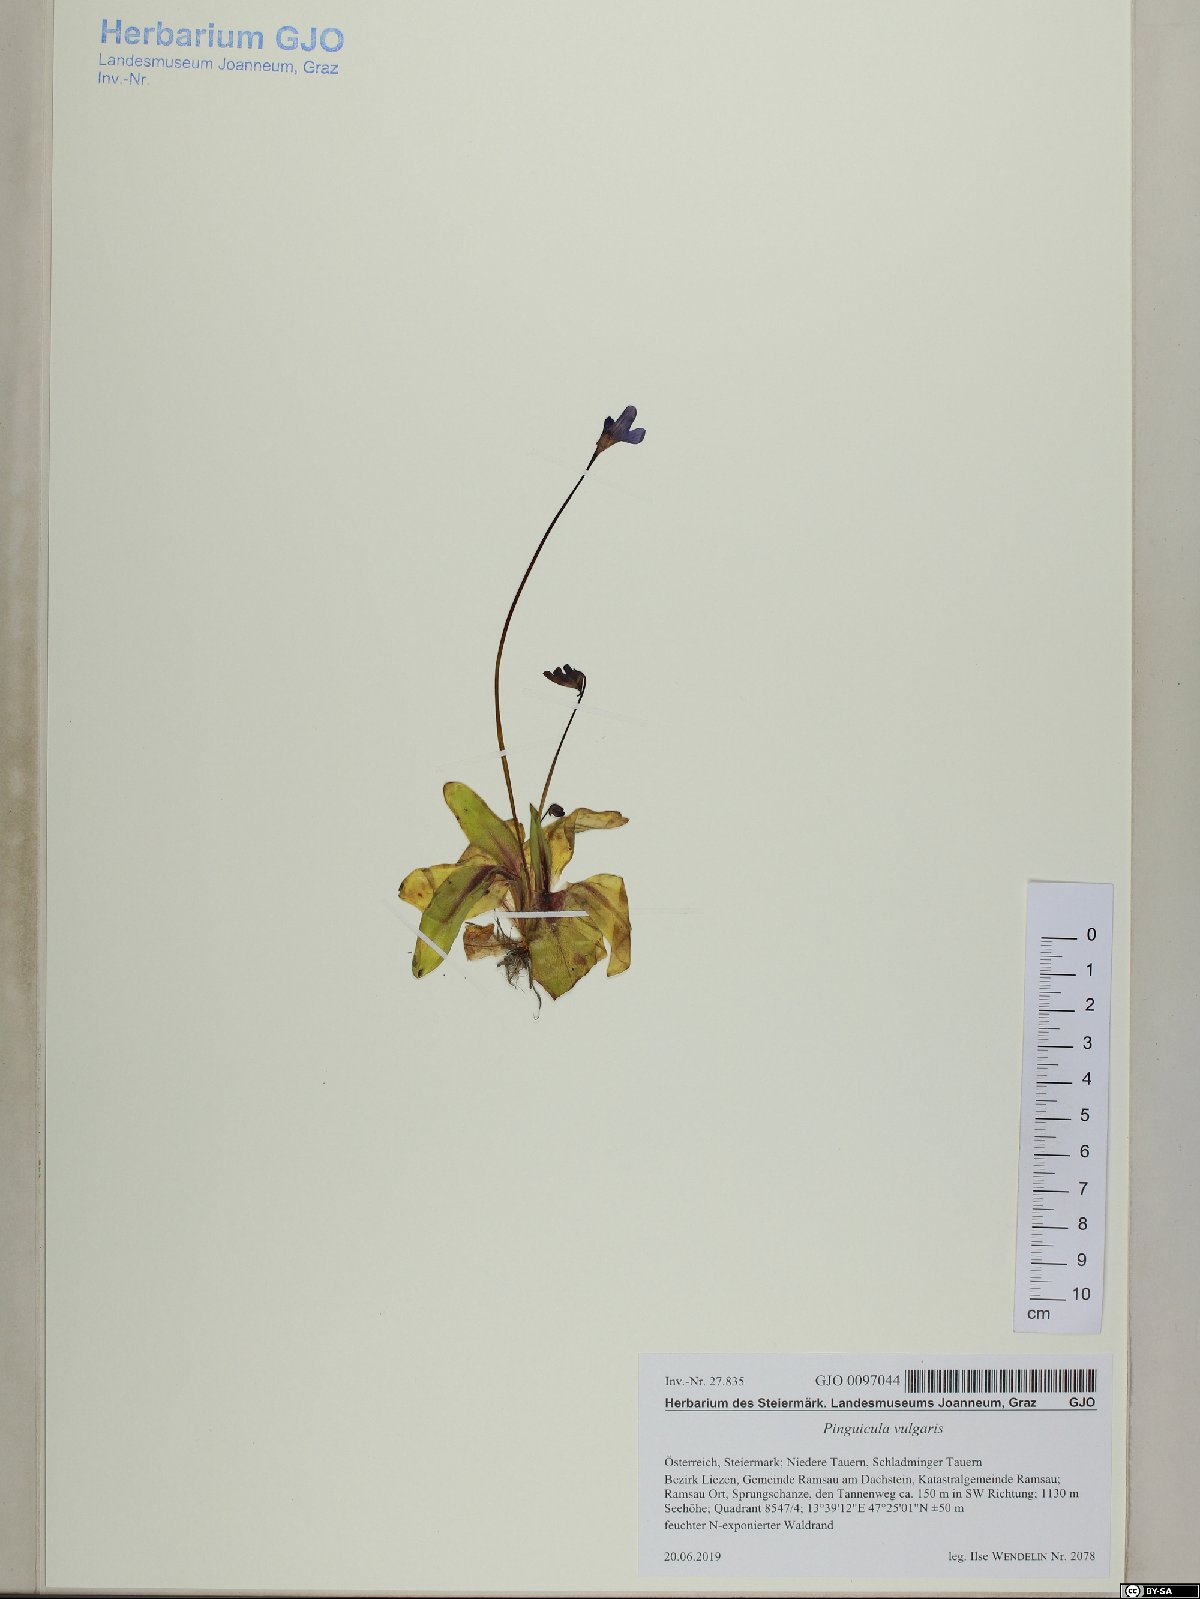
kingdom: Plantae
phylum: Tracheophyta
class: Magnoliopsida
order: Lamiales
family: Lentibulariaceae
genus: Pinguicula
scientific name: Pinguicula vulgaris
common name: Common butterwort
